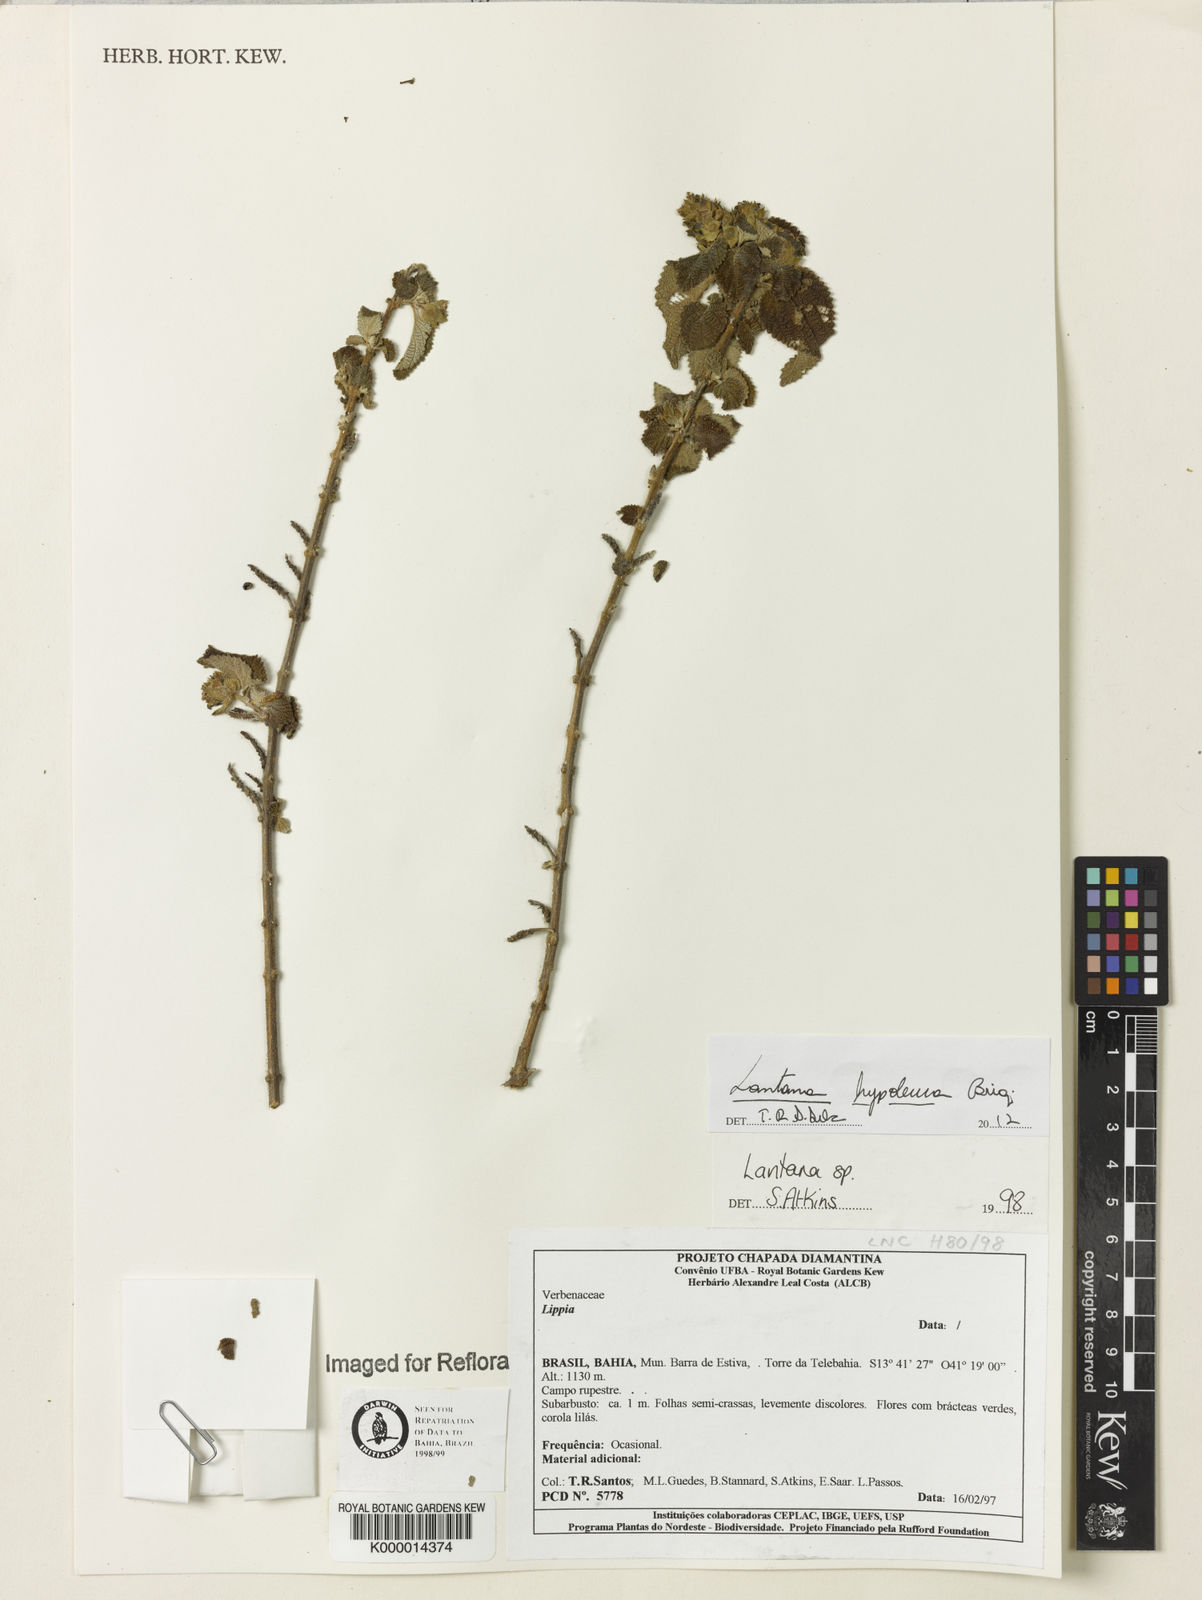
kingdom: Plantae
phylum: Tracheophyta
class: Magnoliopsida
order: Lamiales
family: Verbenaceae
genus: Lantana
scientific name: Lantana hypoleuca
